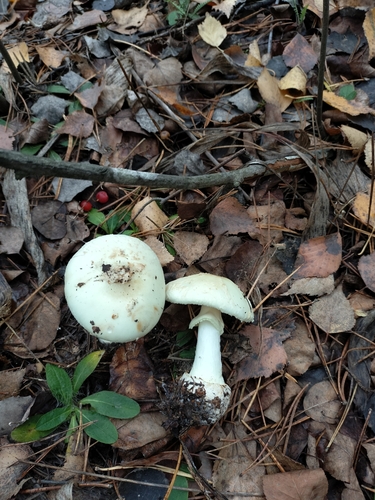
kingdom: Fungi
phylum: Basidiomycota
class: Agaricomycetes
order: Agaricales
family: Amanitaceae
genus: Amanita
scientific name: Amanita citrina
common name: False death-cap
